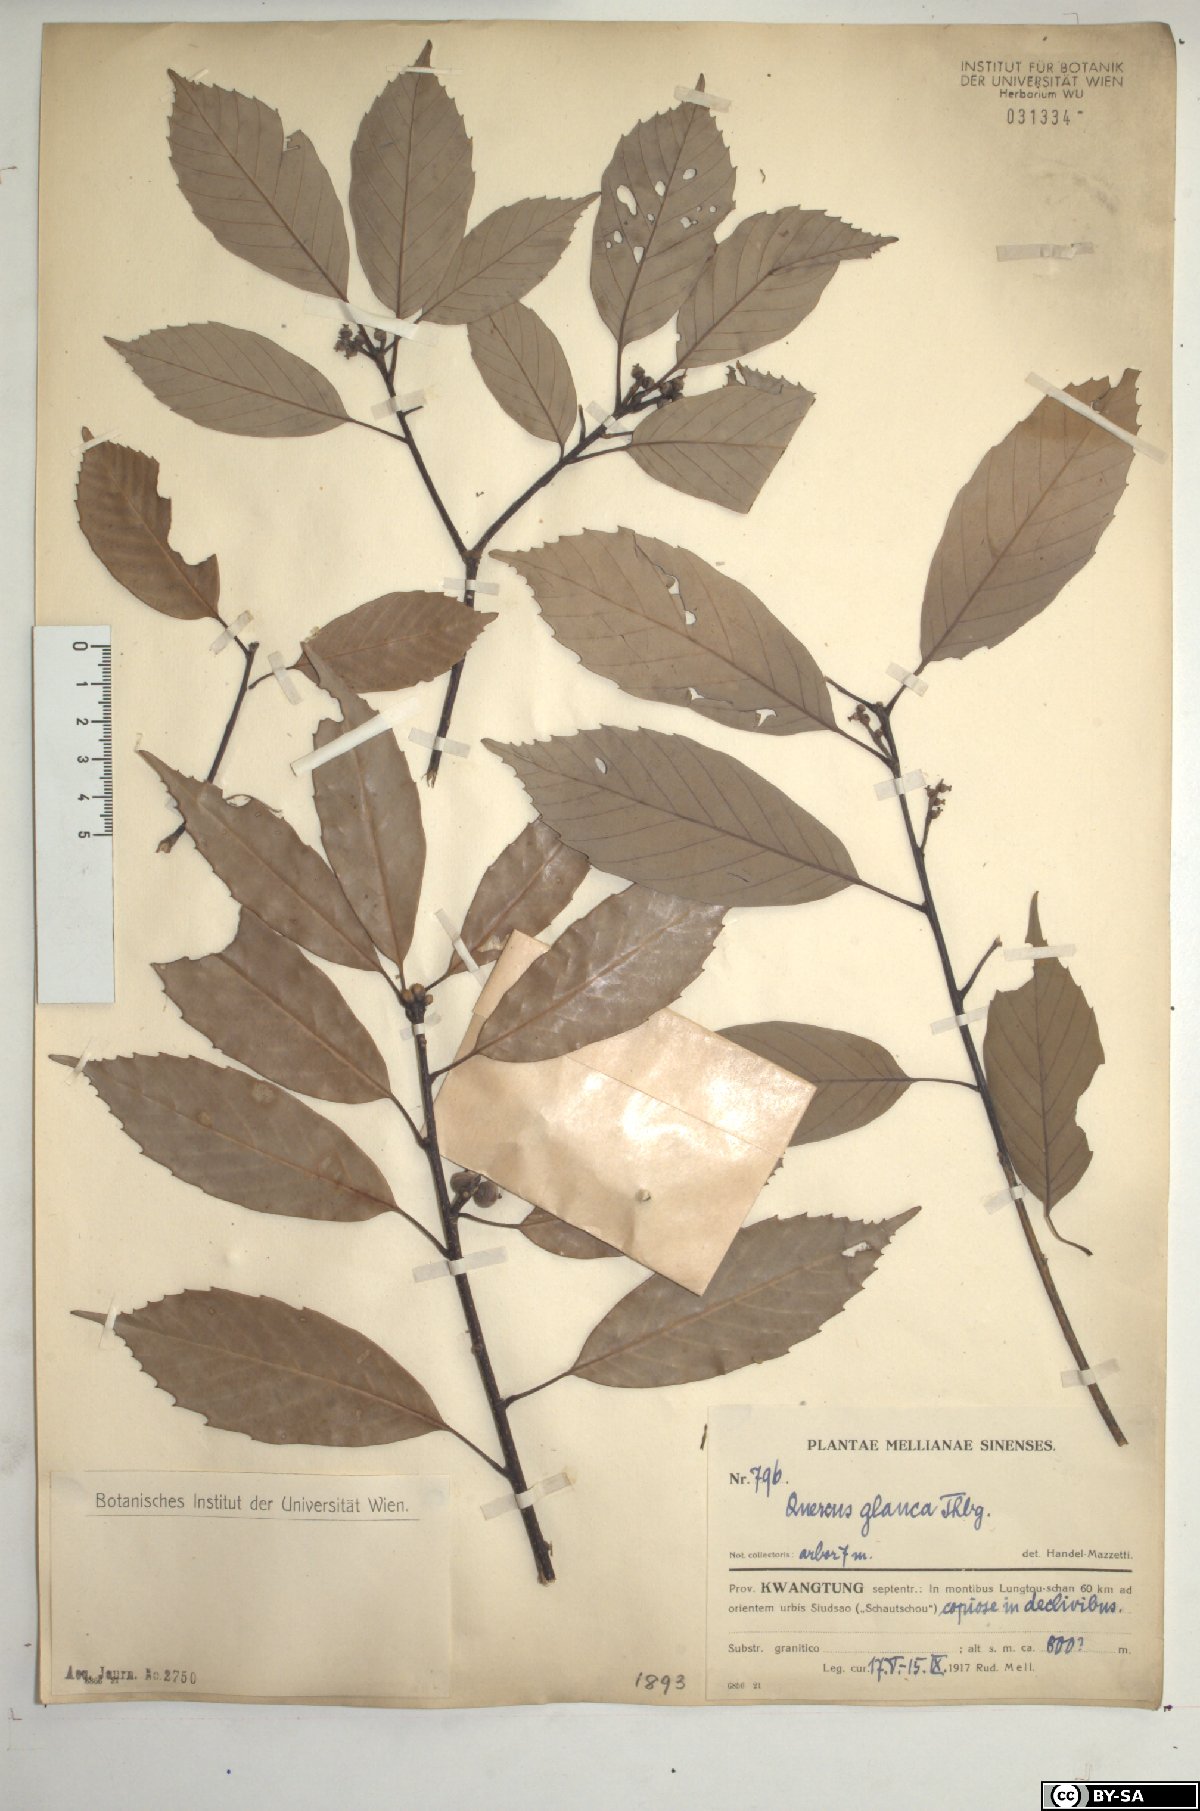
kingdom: Plantae
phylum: Tracheophyta
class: Magnoliopsida
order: Fagales
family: Fagaceae
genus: Quercus
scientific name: Quercus glauca
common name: Ring-cup oak
